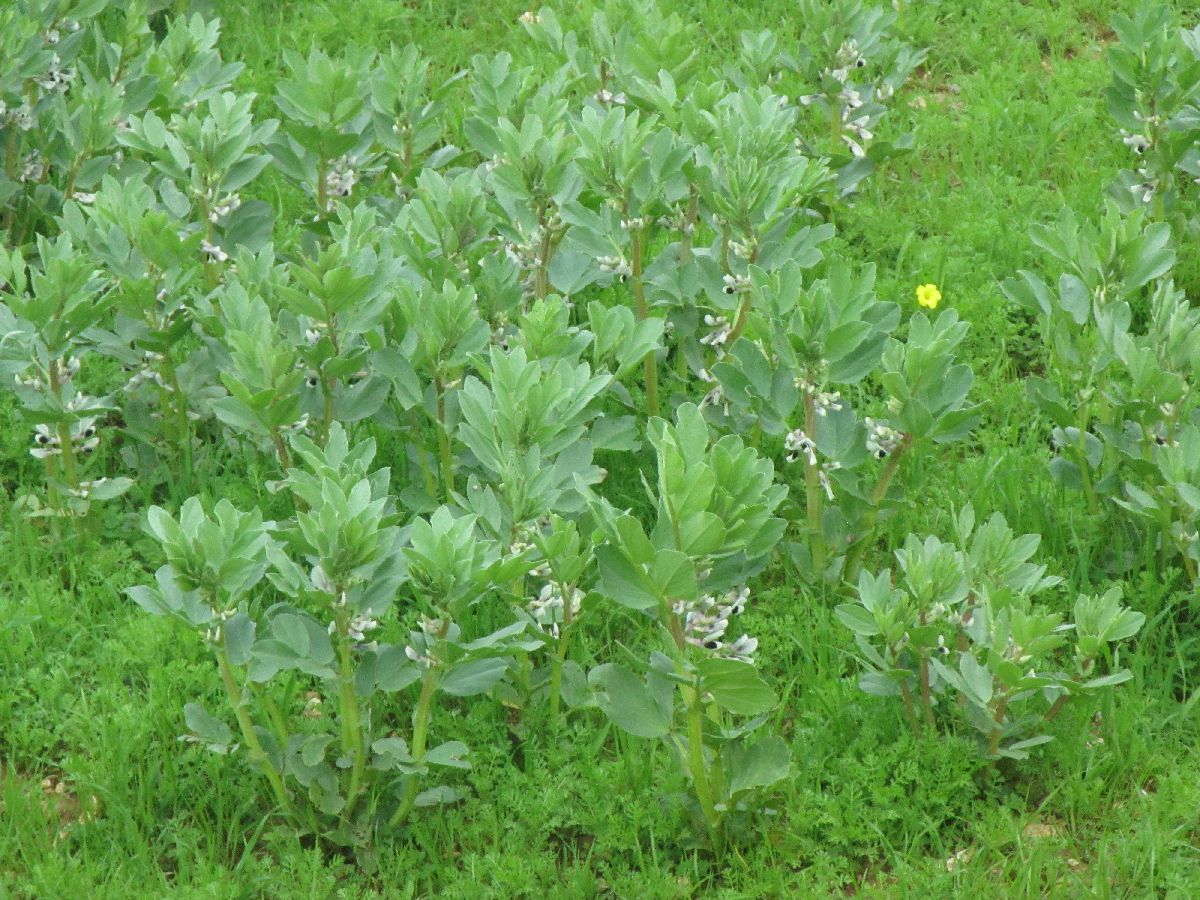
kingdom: Plantae
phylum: Tracheophyta
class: Magnoliopsida
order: Fabales
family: Fabaceae
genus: Vicia
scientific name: Vicia faba
